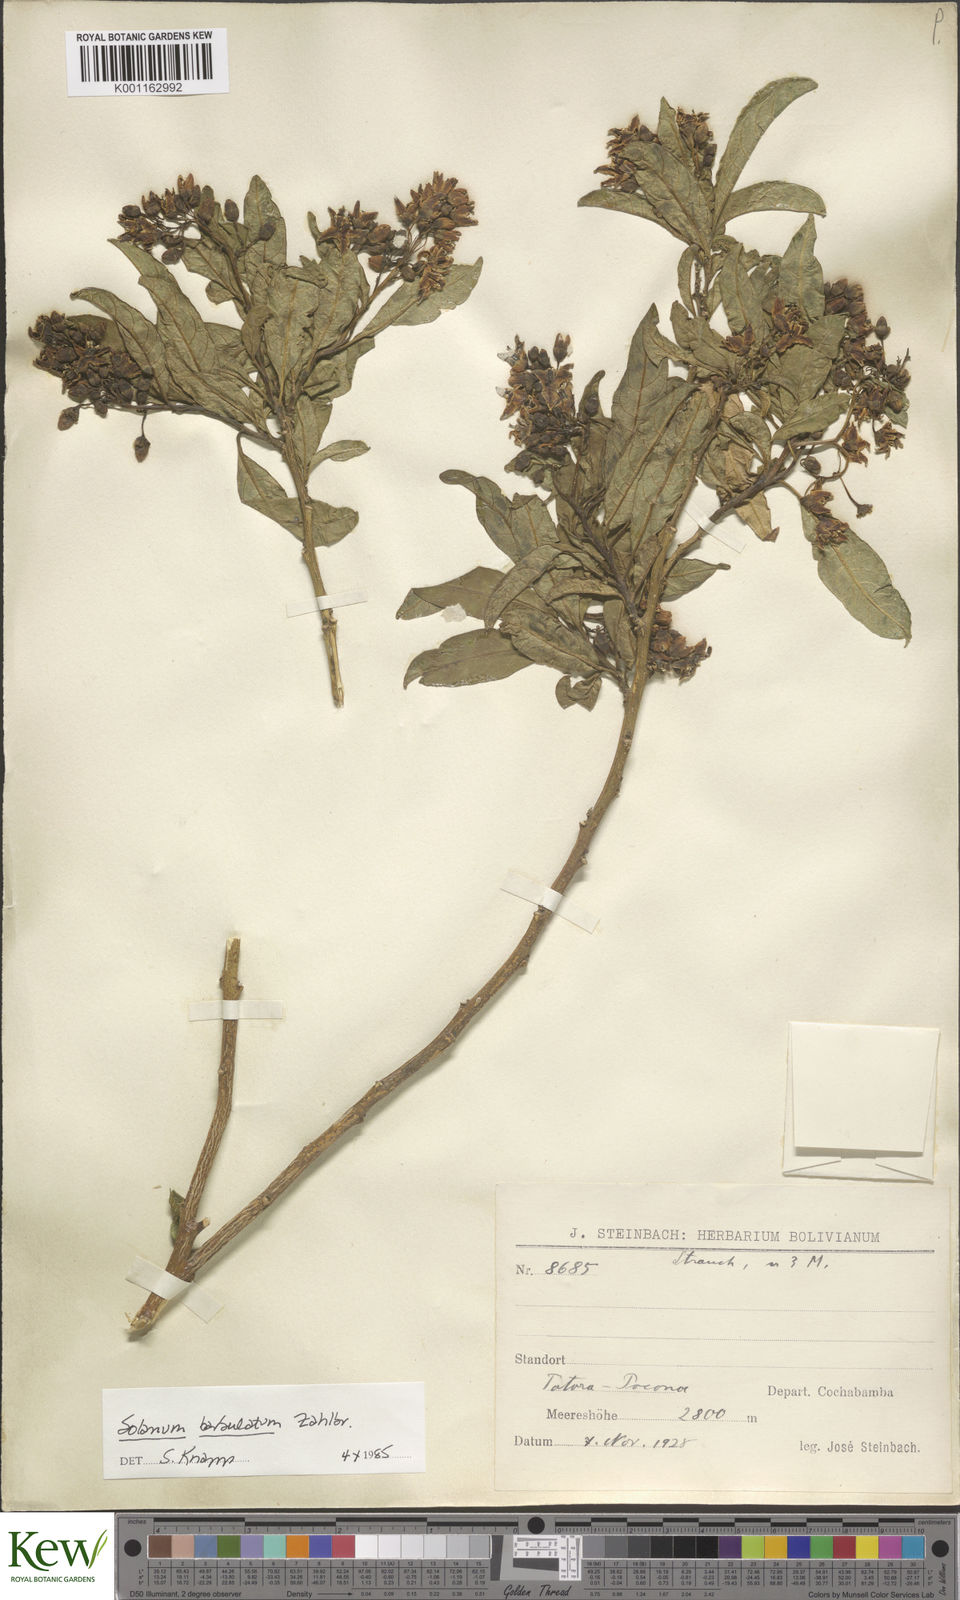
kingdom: Plantae
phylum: Tracheophyta
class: Magnoliopsida
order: Solanales
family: Solanaceae
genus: Solanum
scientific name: Solanum barbulatum
